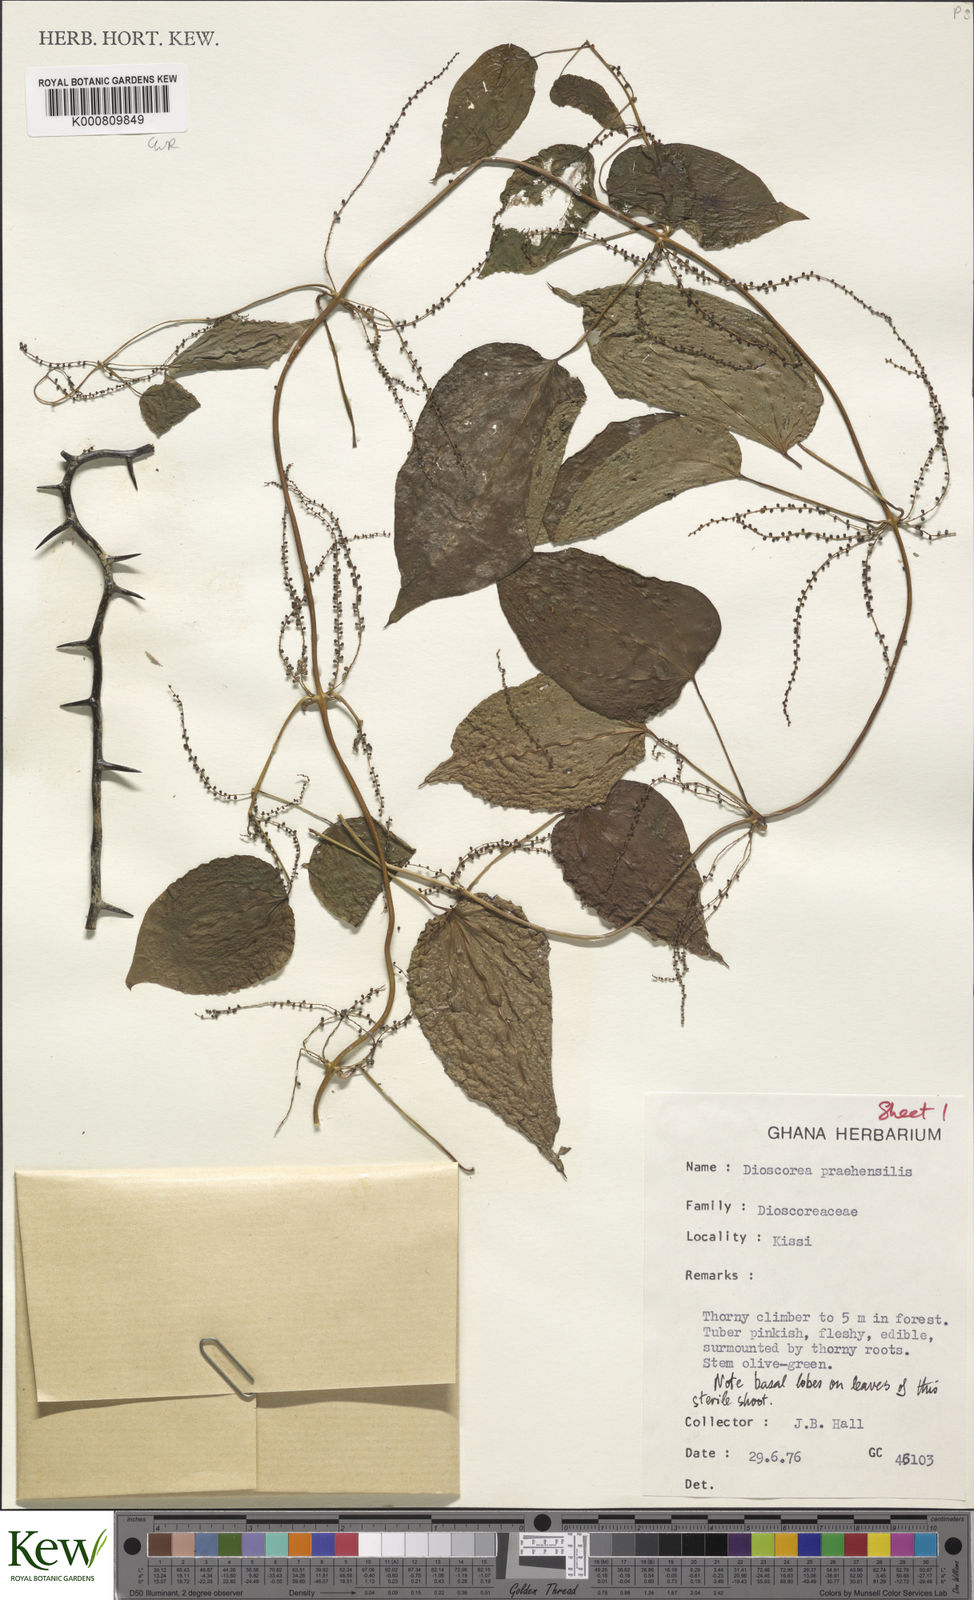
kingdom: Plantae
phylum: Tracheophyta
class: Liliopsida
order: Dioscoreales
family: Dioscoreaceae
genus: Dioscorea
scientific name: Dioscorea praehensilis
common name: Bush yam
